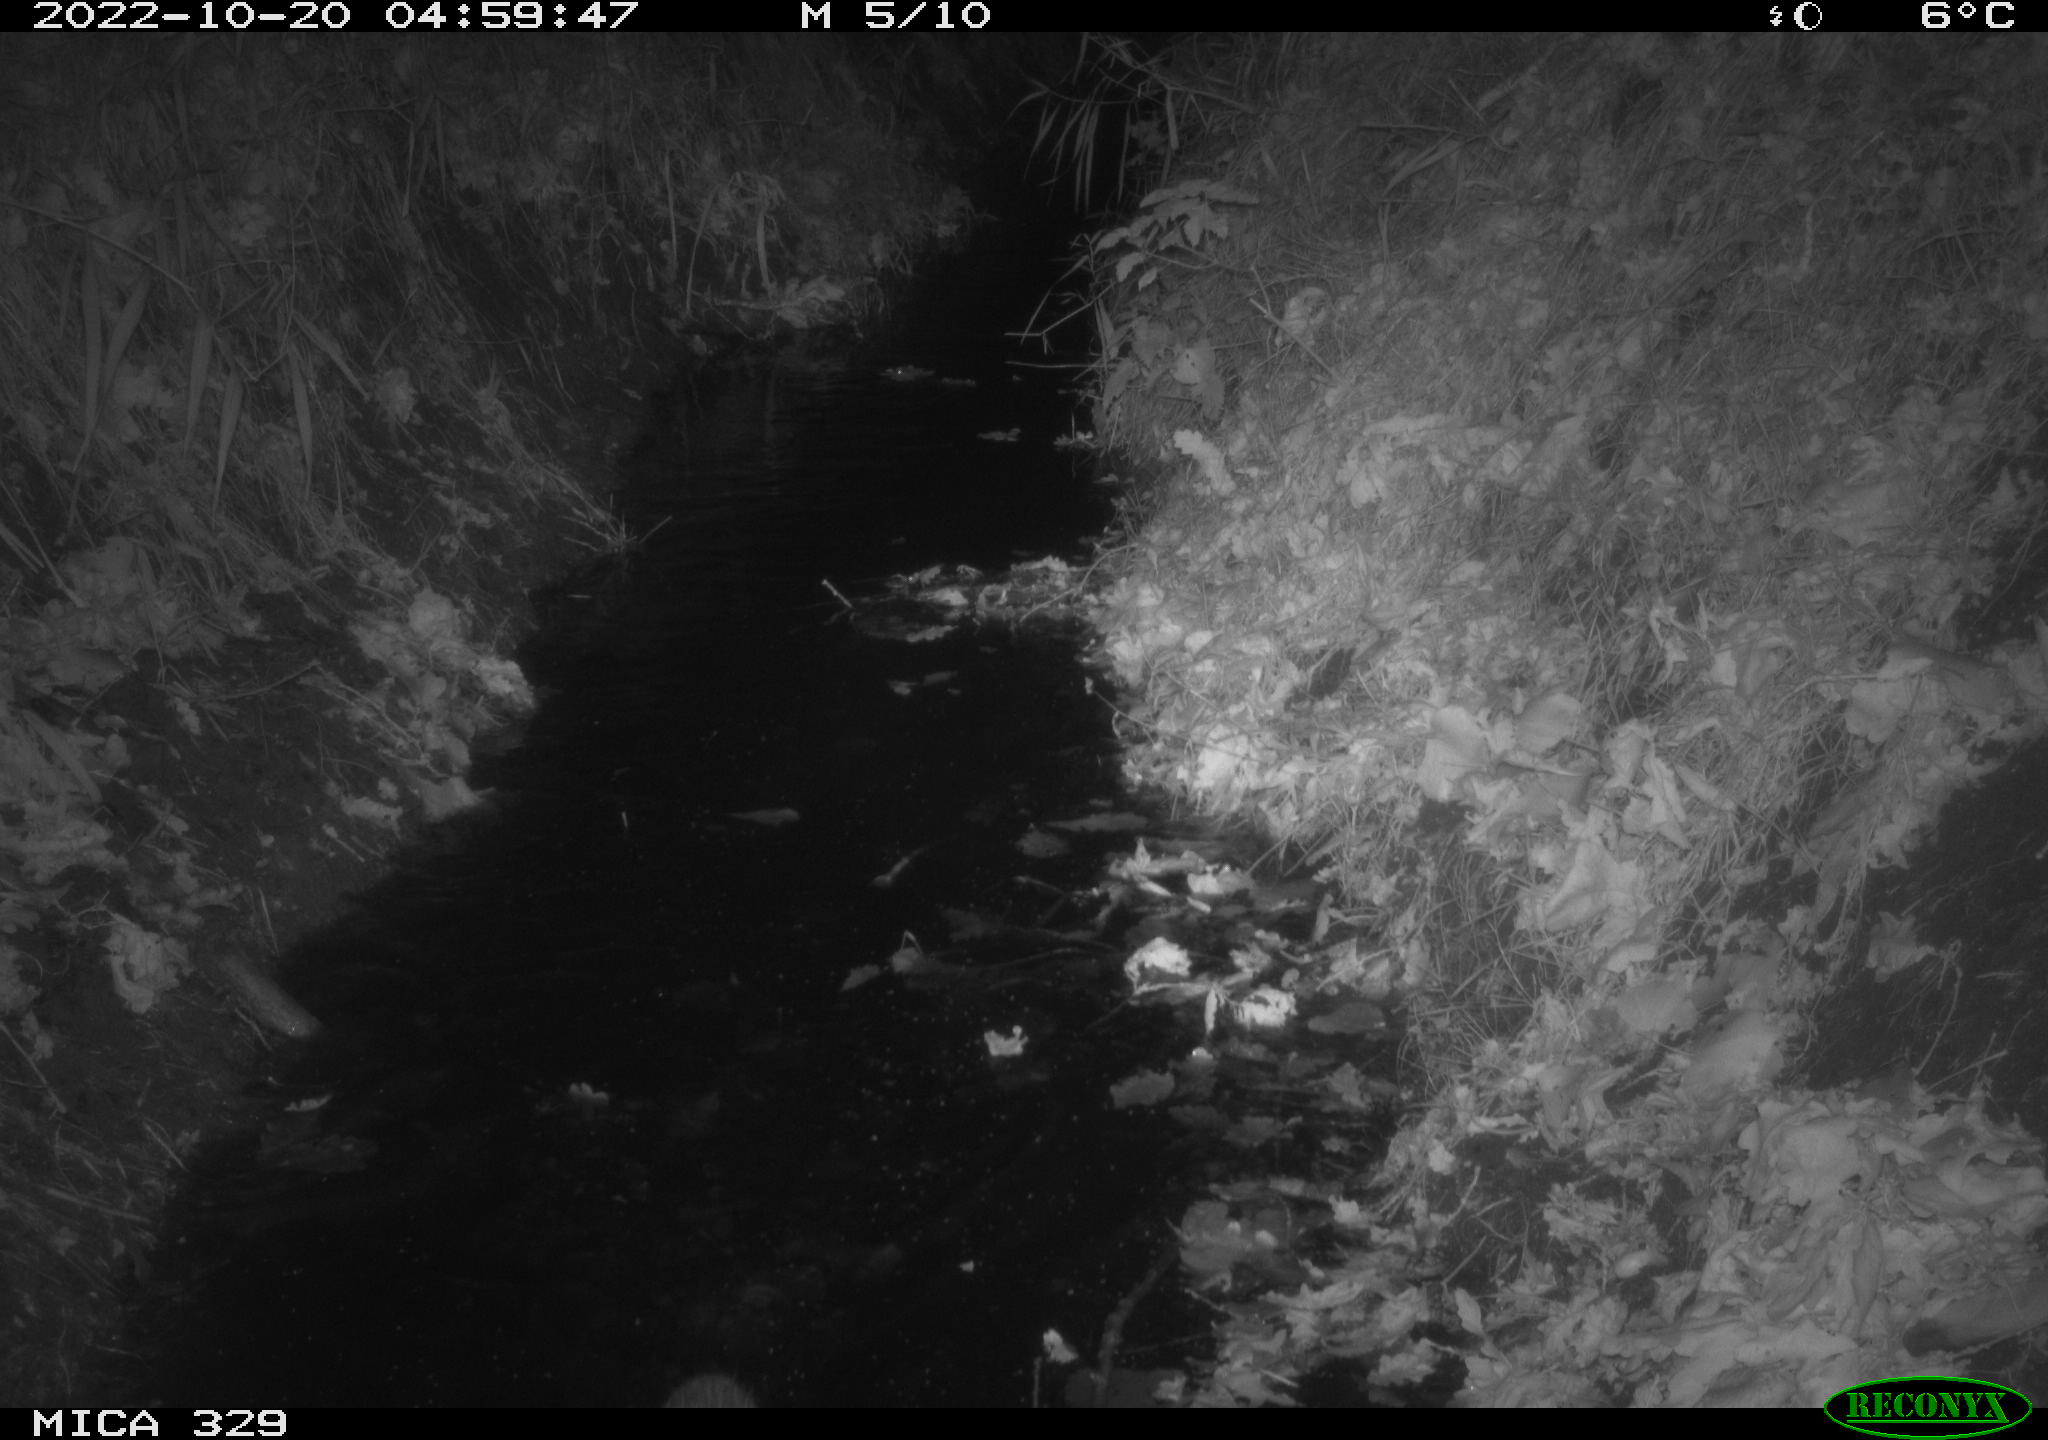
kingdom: Animalia
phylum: Chordata
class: Mammalia
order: Rodentia
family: Cricetidae
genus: Ondatra
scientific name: Ondatra zibethicus
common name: Muskrat
